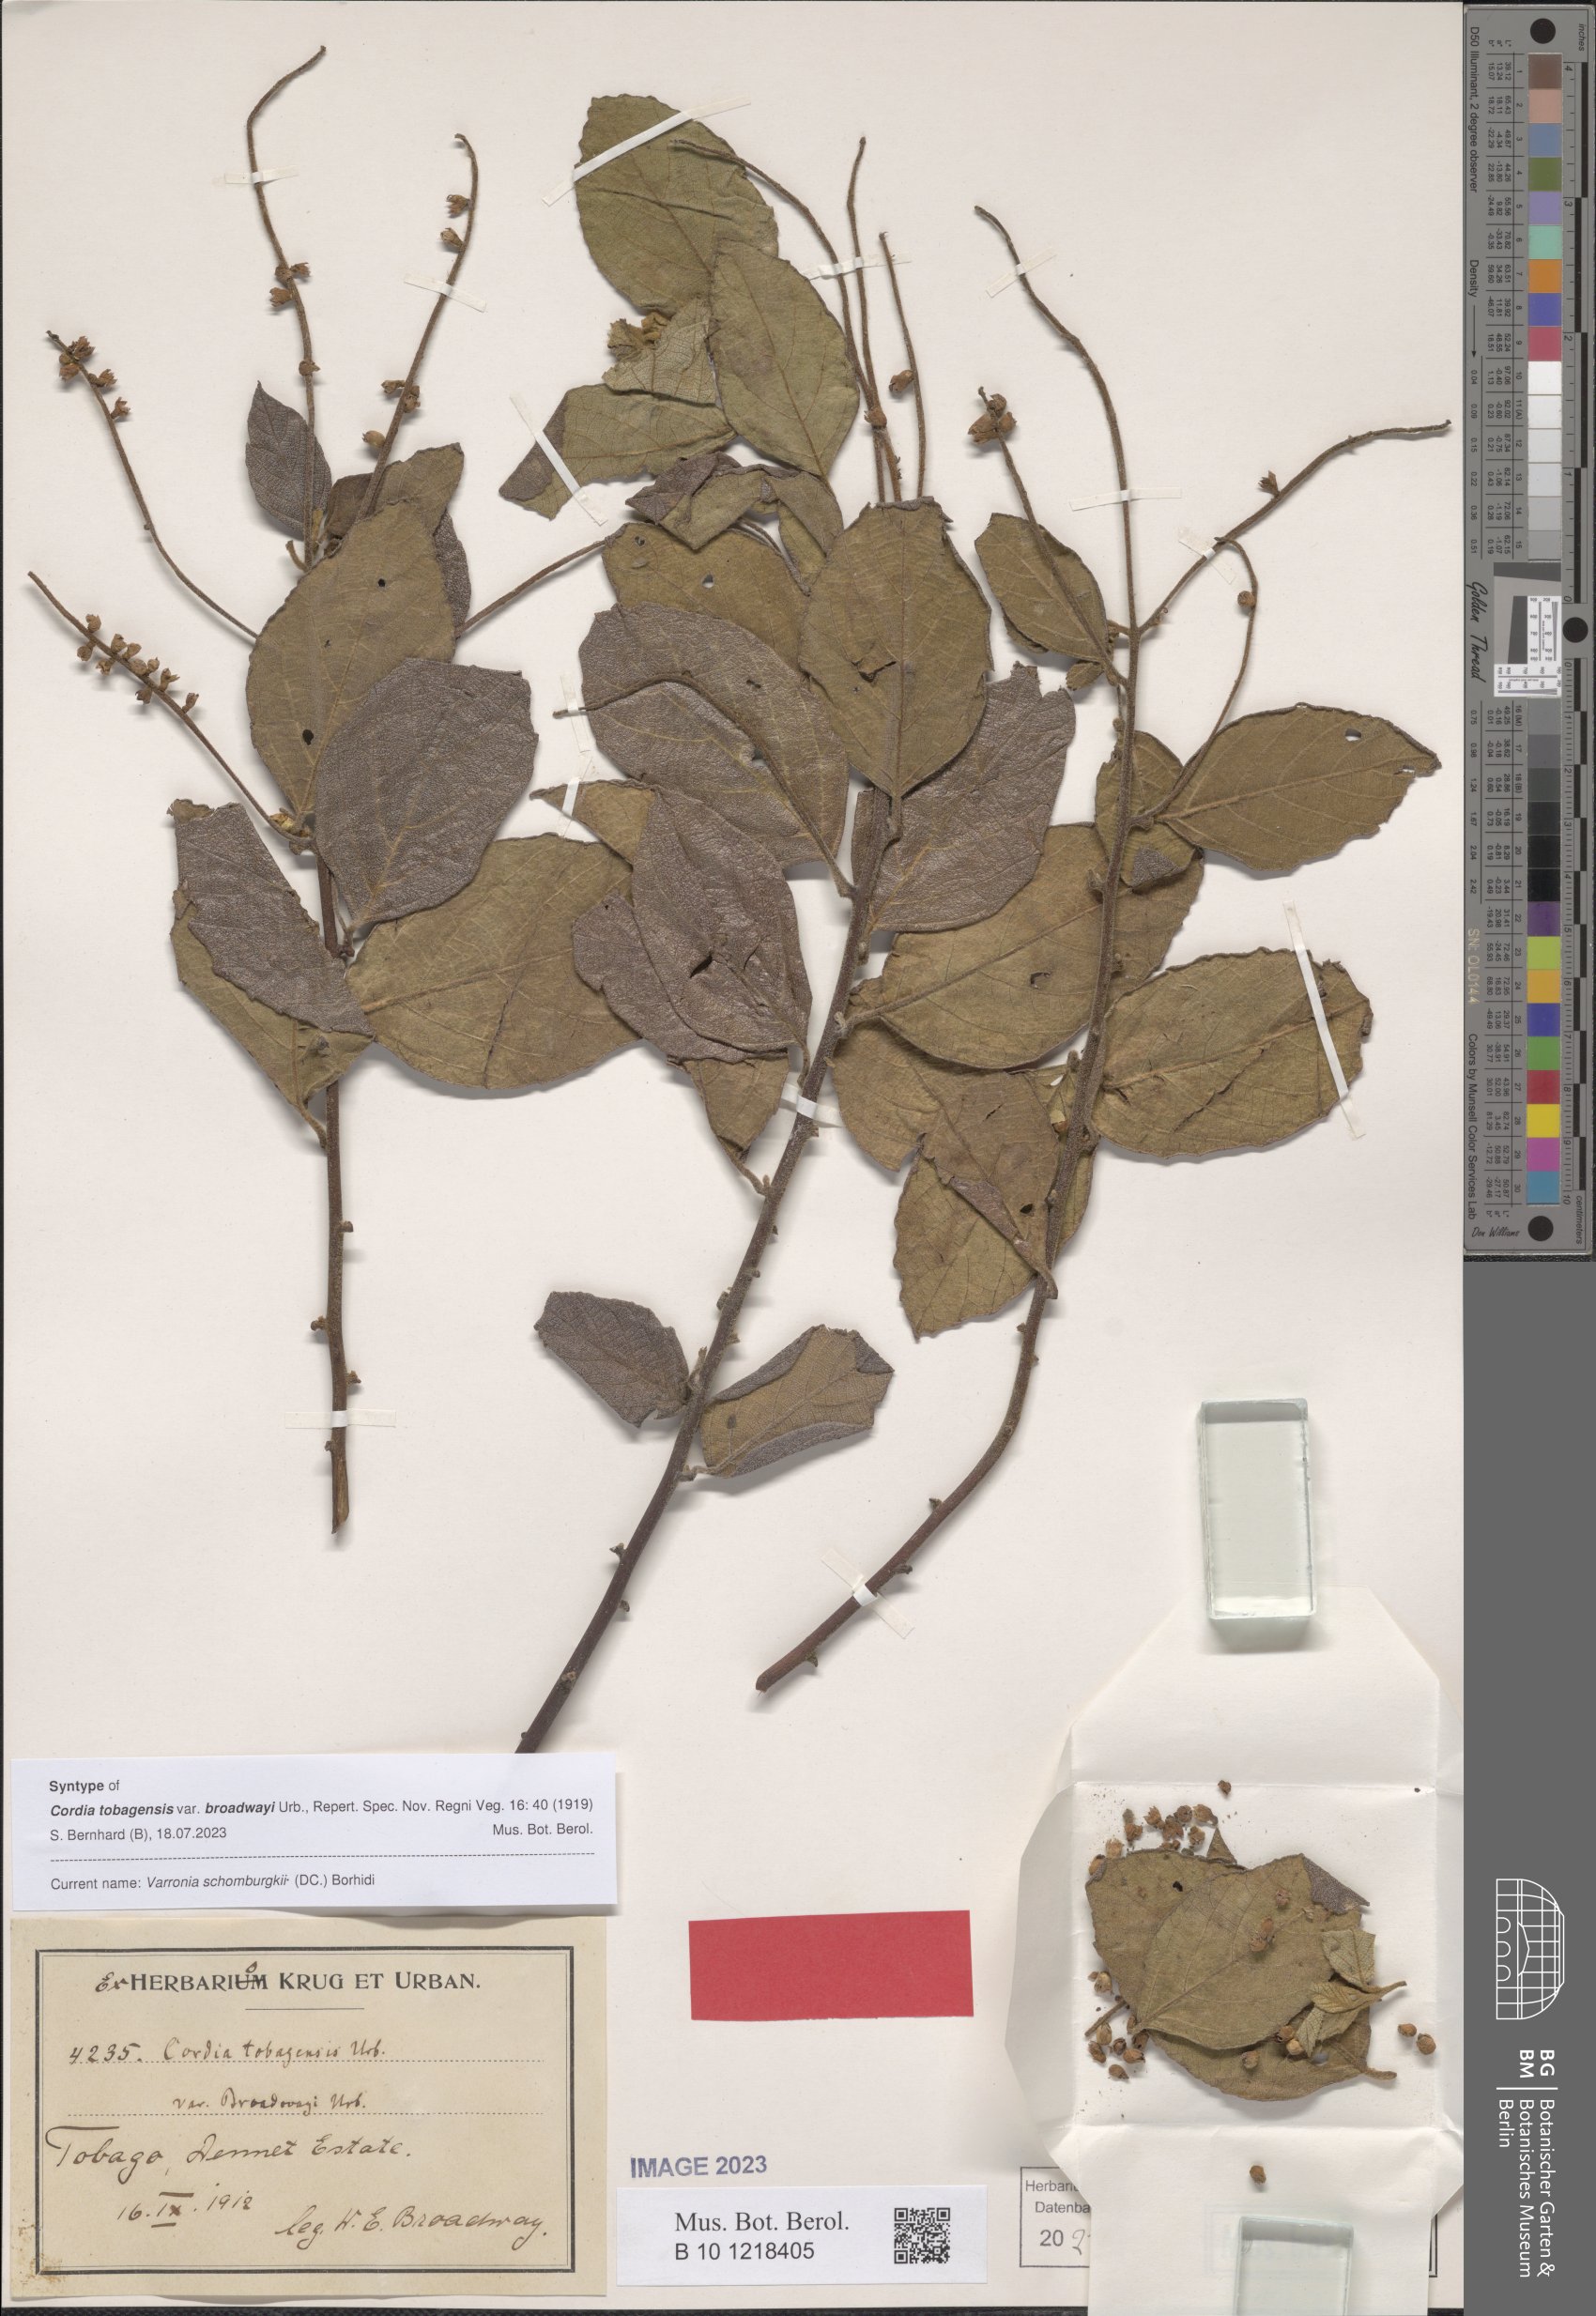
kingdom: Plantae
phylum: Tracheophyta
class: Magnoliopsida
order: Boraginales
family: Cordiaceae
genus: Varronia
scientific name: Varronia schomburgkii
